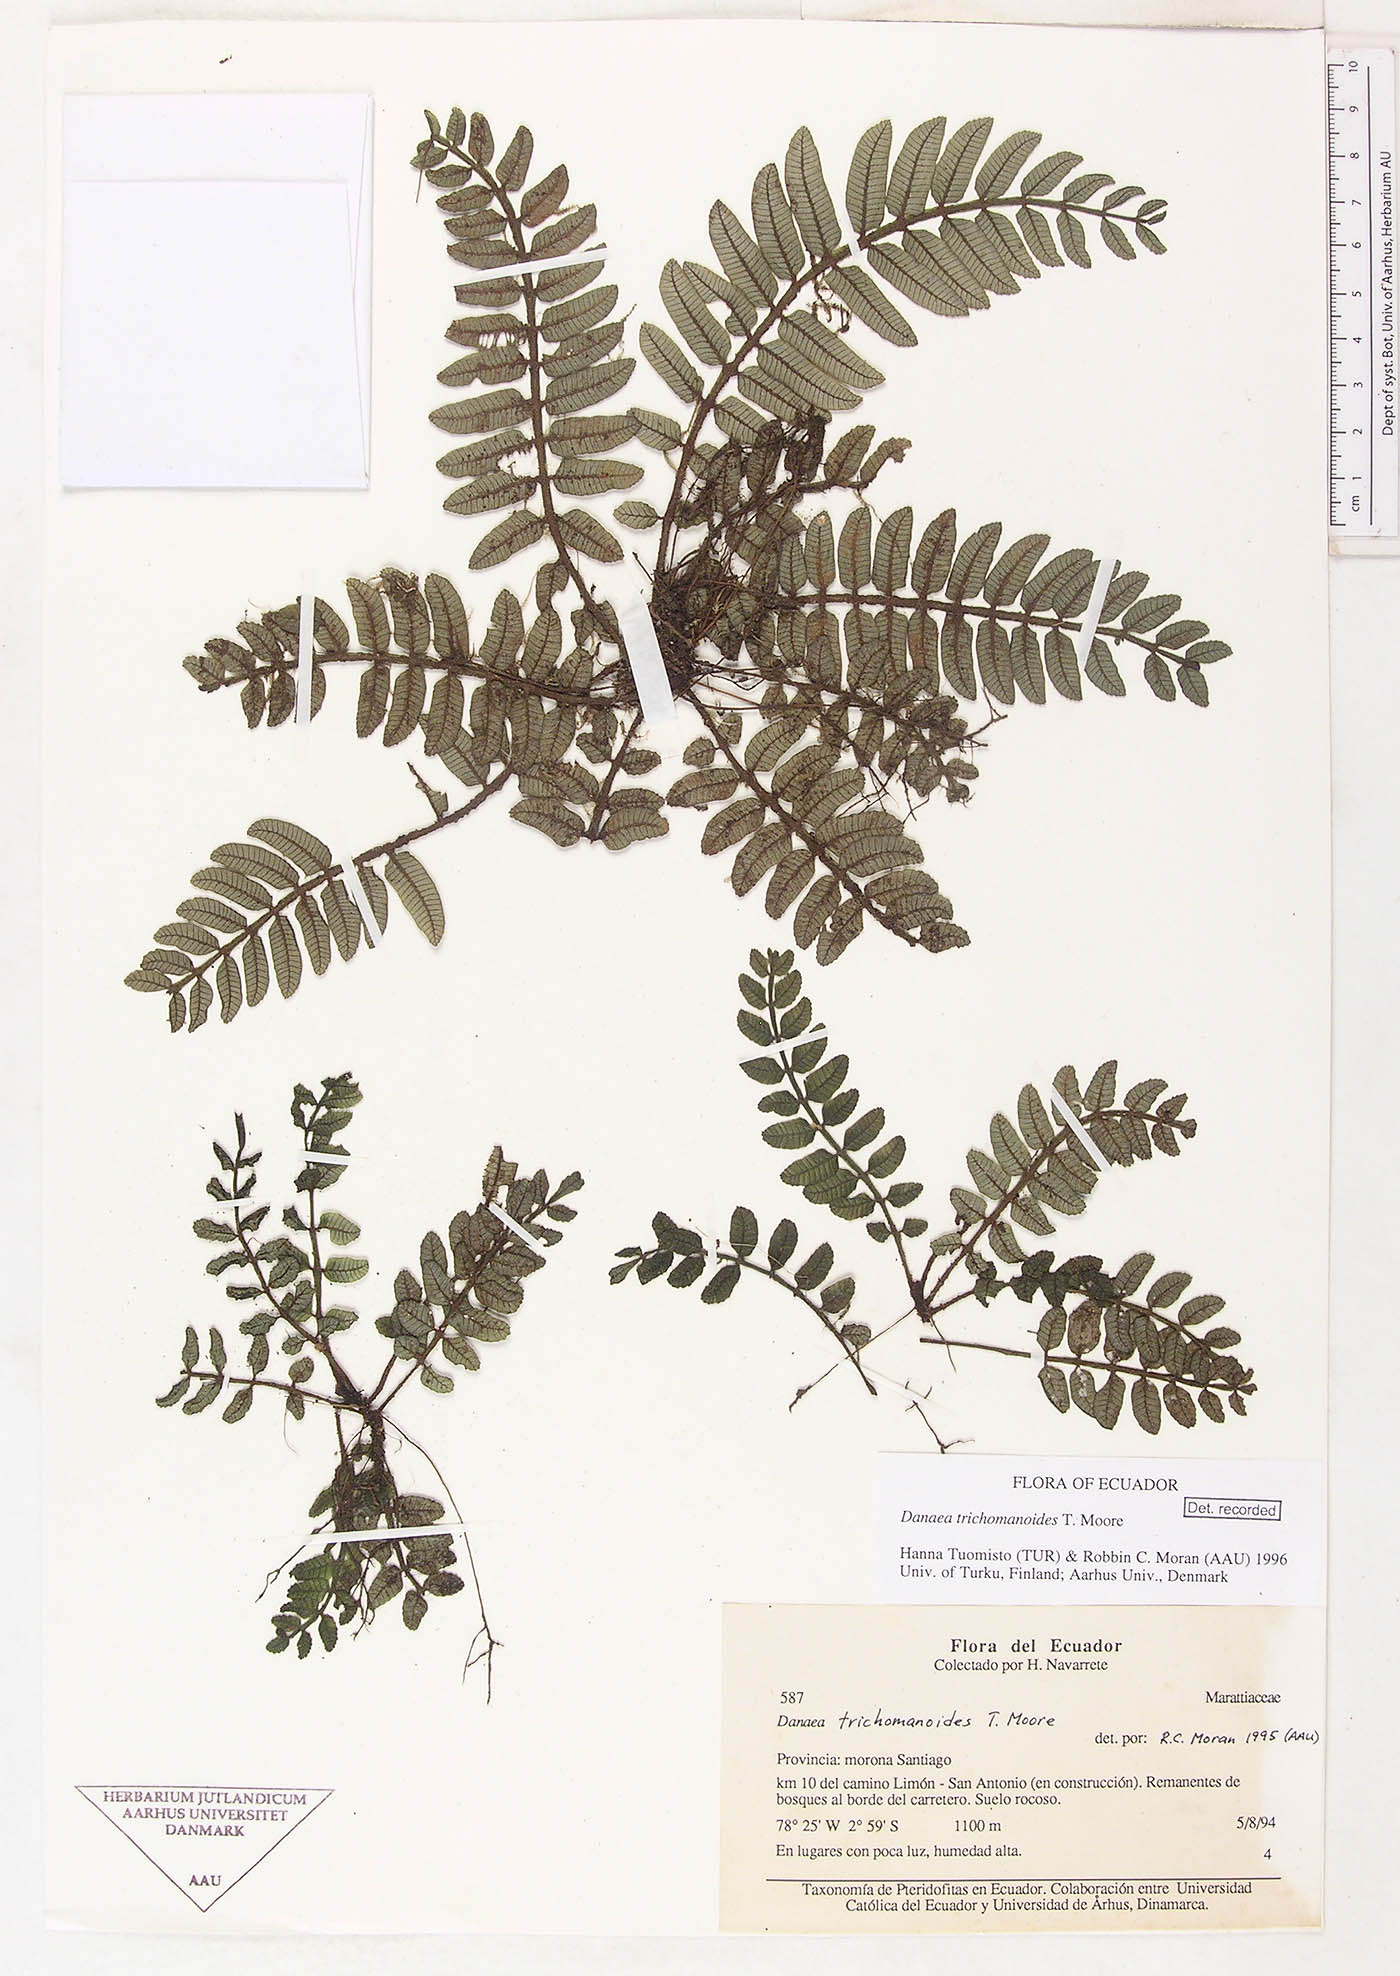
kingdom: Plantae
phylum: Tracheophyta
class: Polypodiopsida
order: Marattiales
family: Marattiaceae
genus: Danaea
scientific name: Danaea trichomanoides
